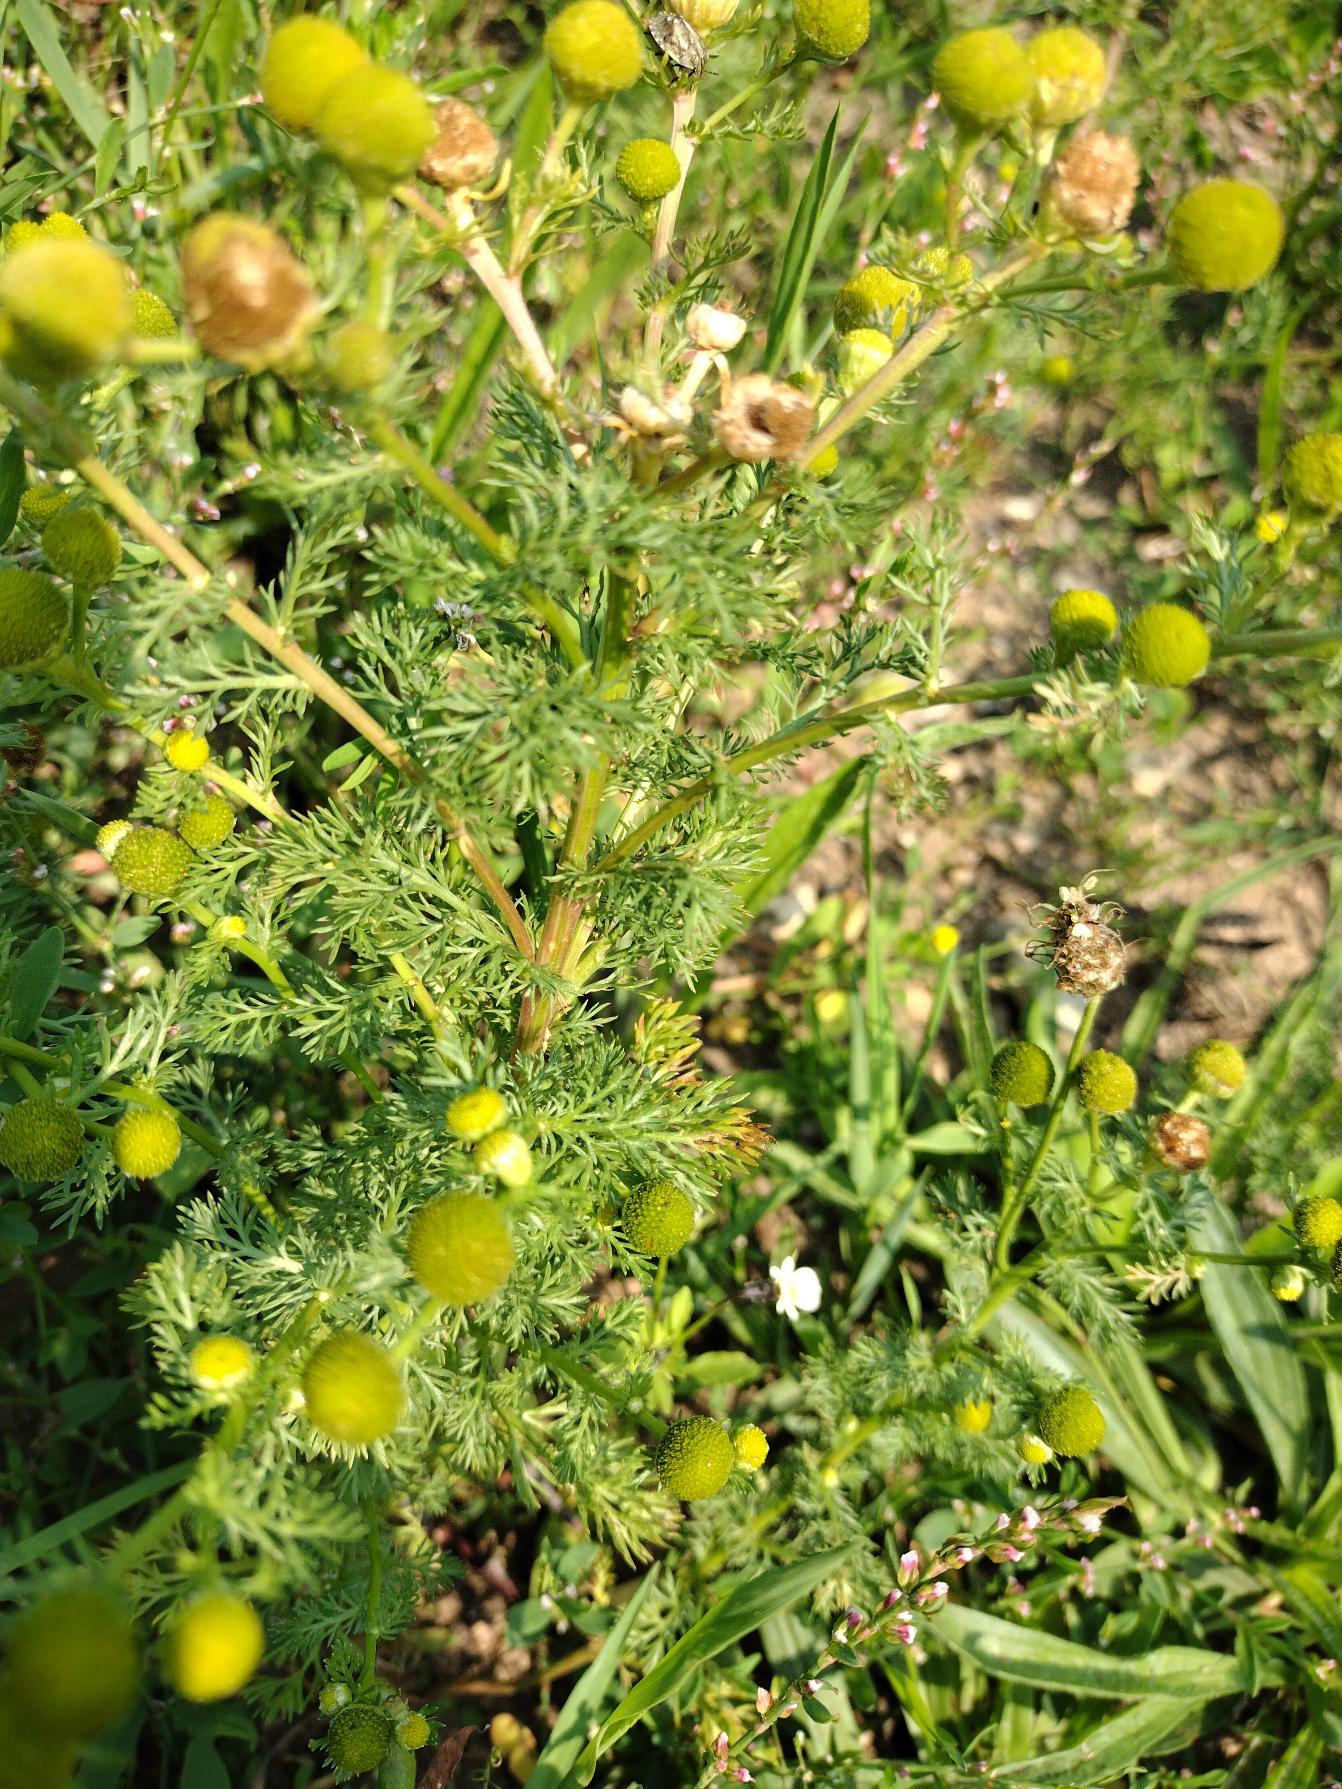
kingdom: Plantae
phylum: Tracheophyta
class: Magnoliopsida
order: Asterales
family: Asteraceae
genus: Matricaria
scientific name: Matricaria discoidea
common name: Skive-kamille
